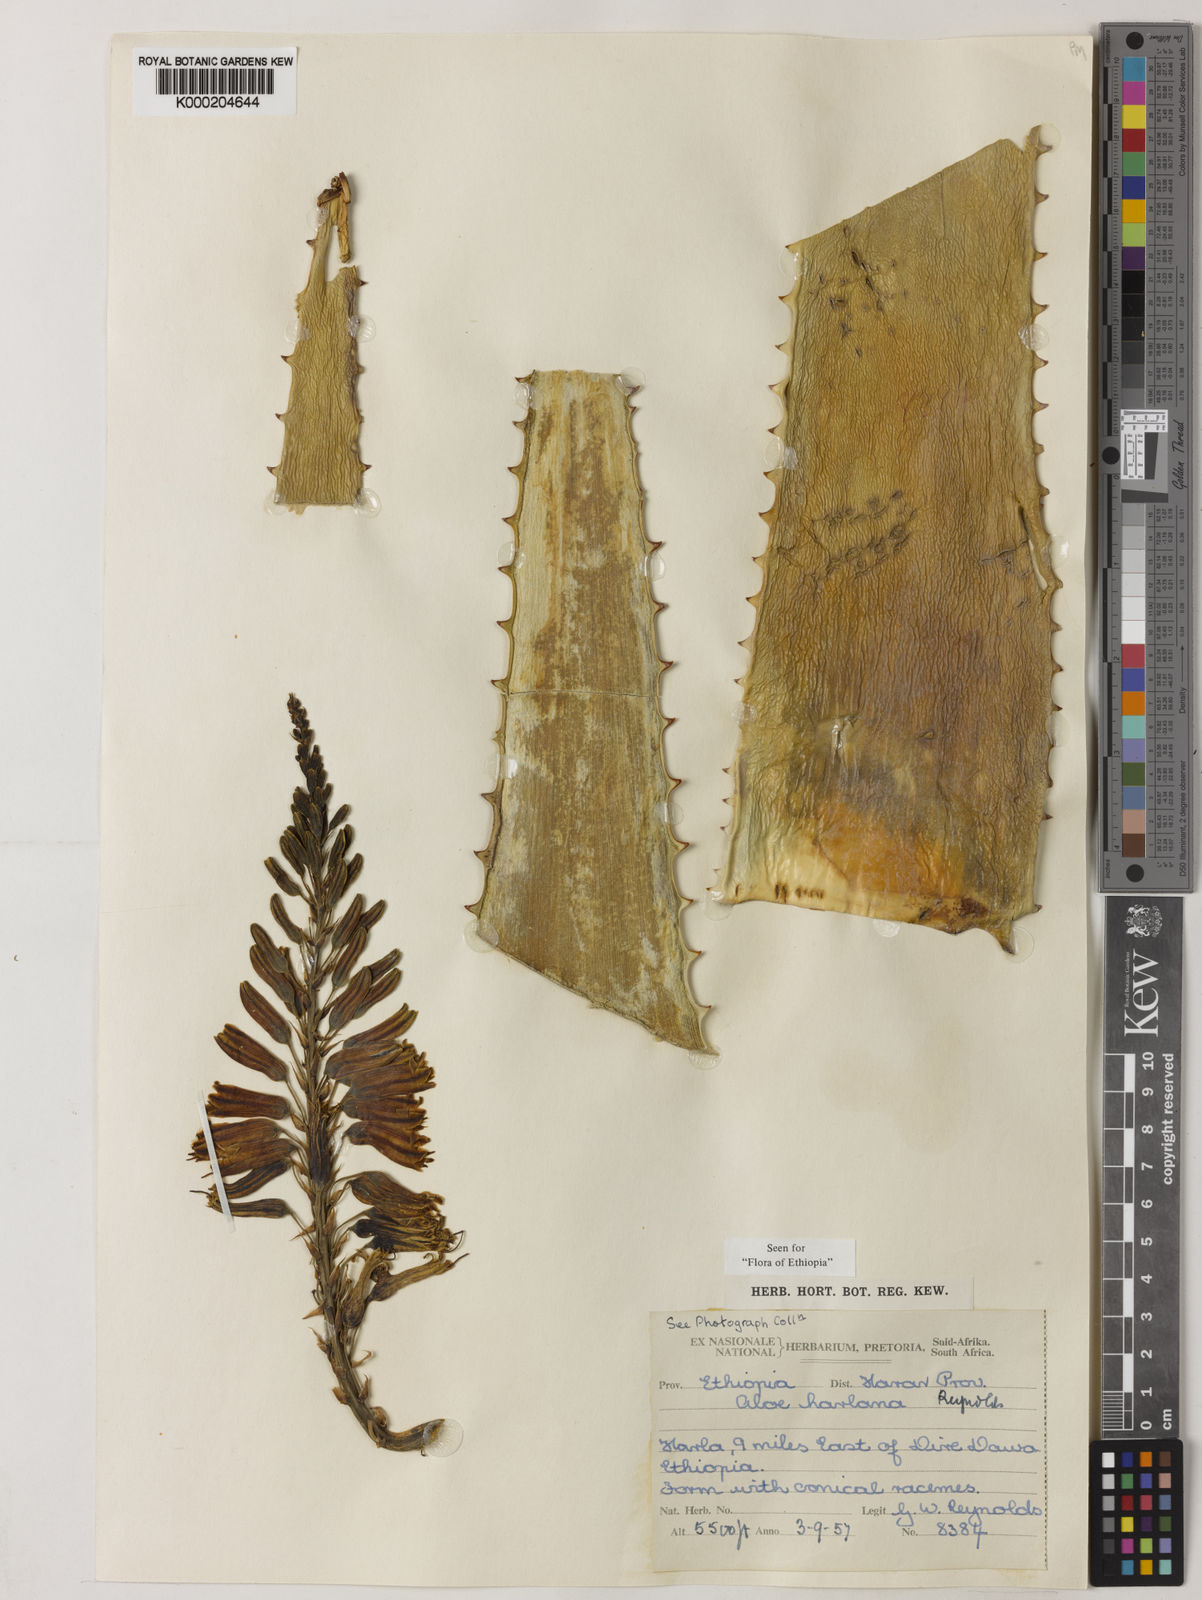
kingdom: Plantae
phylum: Tracheophyta
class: Liliopsida
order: Asparagales
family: Asphodelaceae
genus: Aloe
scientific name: Aloe harlana
